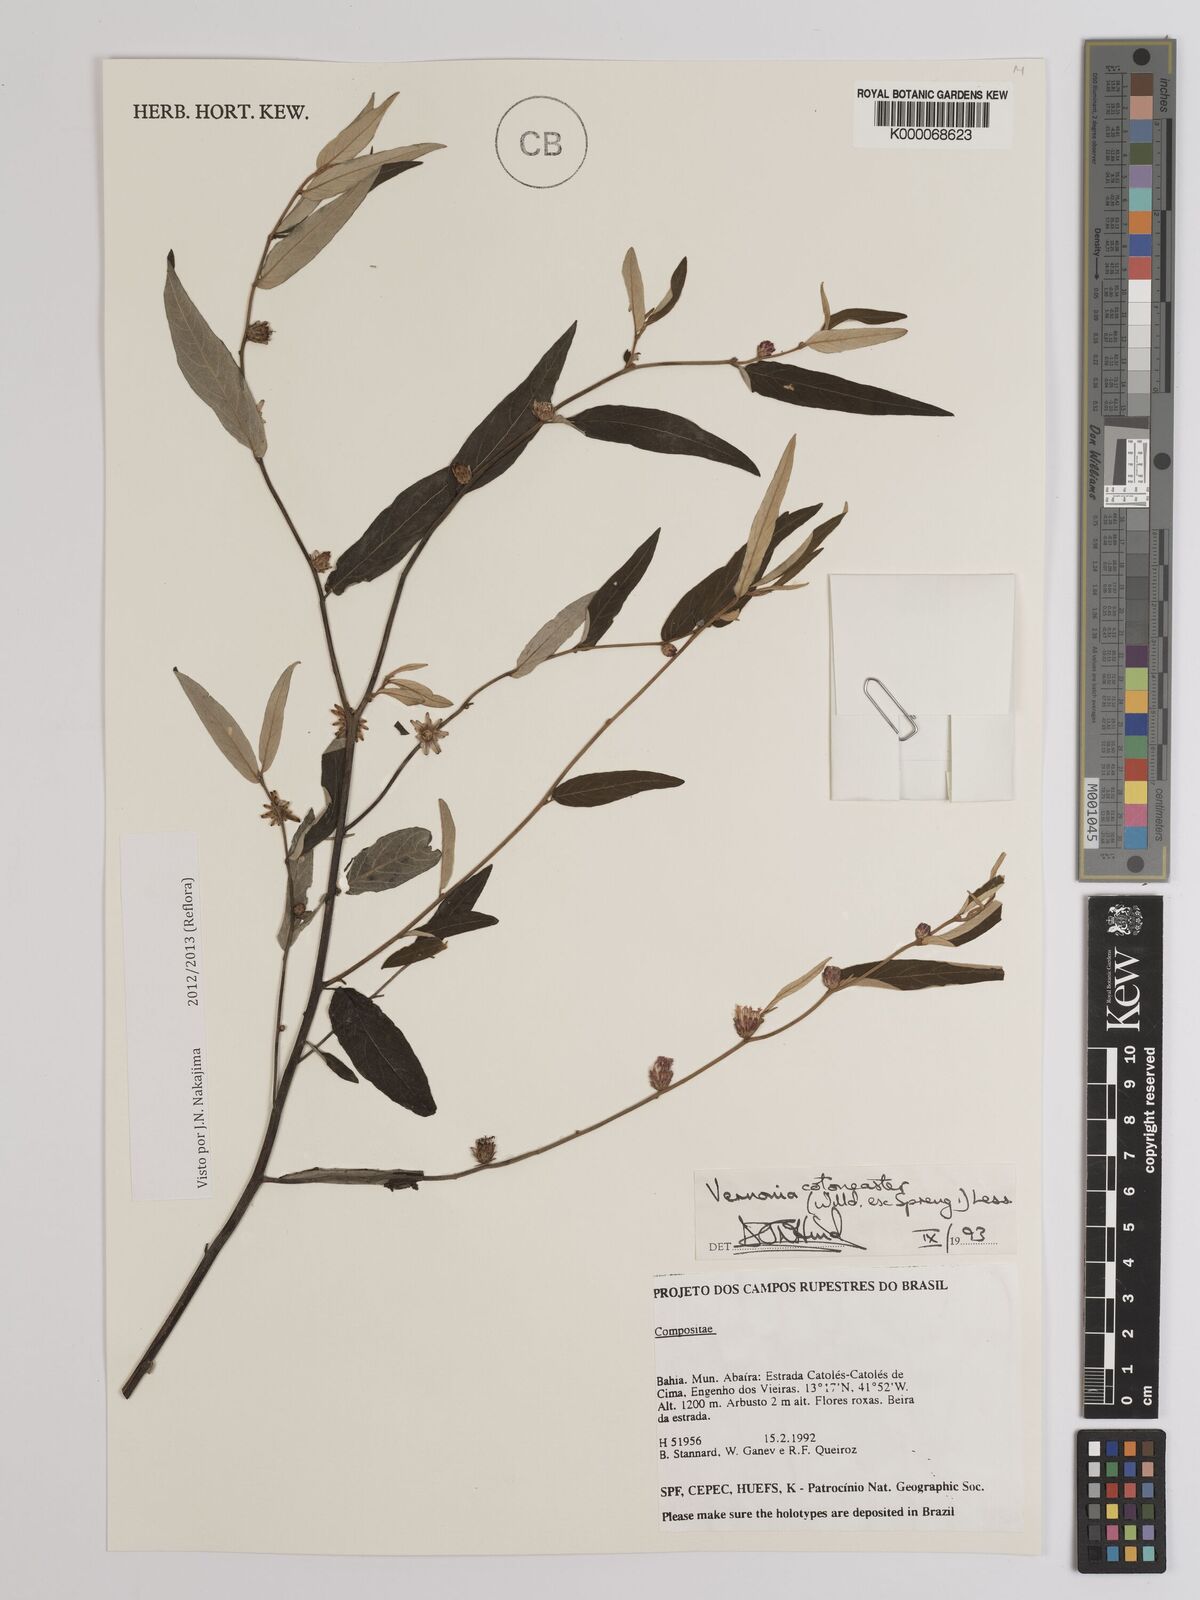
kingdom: Plantae
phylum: Tracheophyta
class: Magnoliopsida
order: Asterales
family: Asteraceae
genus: Lepidaploa
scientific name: Lepidaploa cotoneaster
